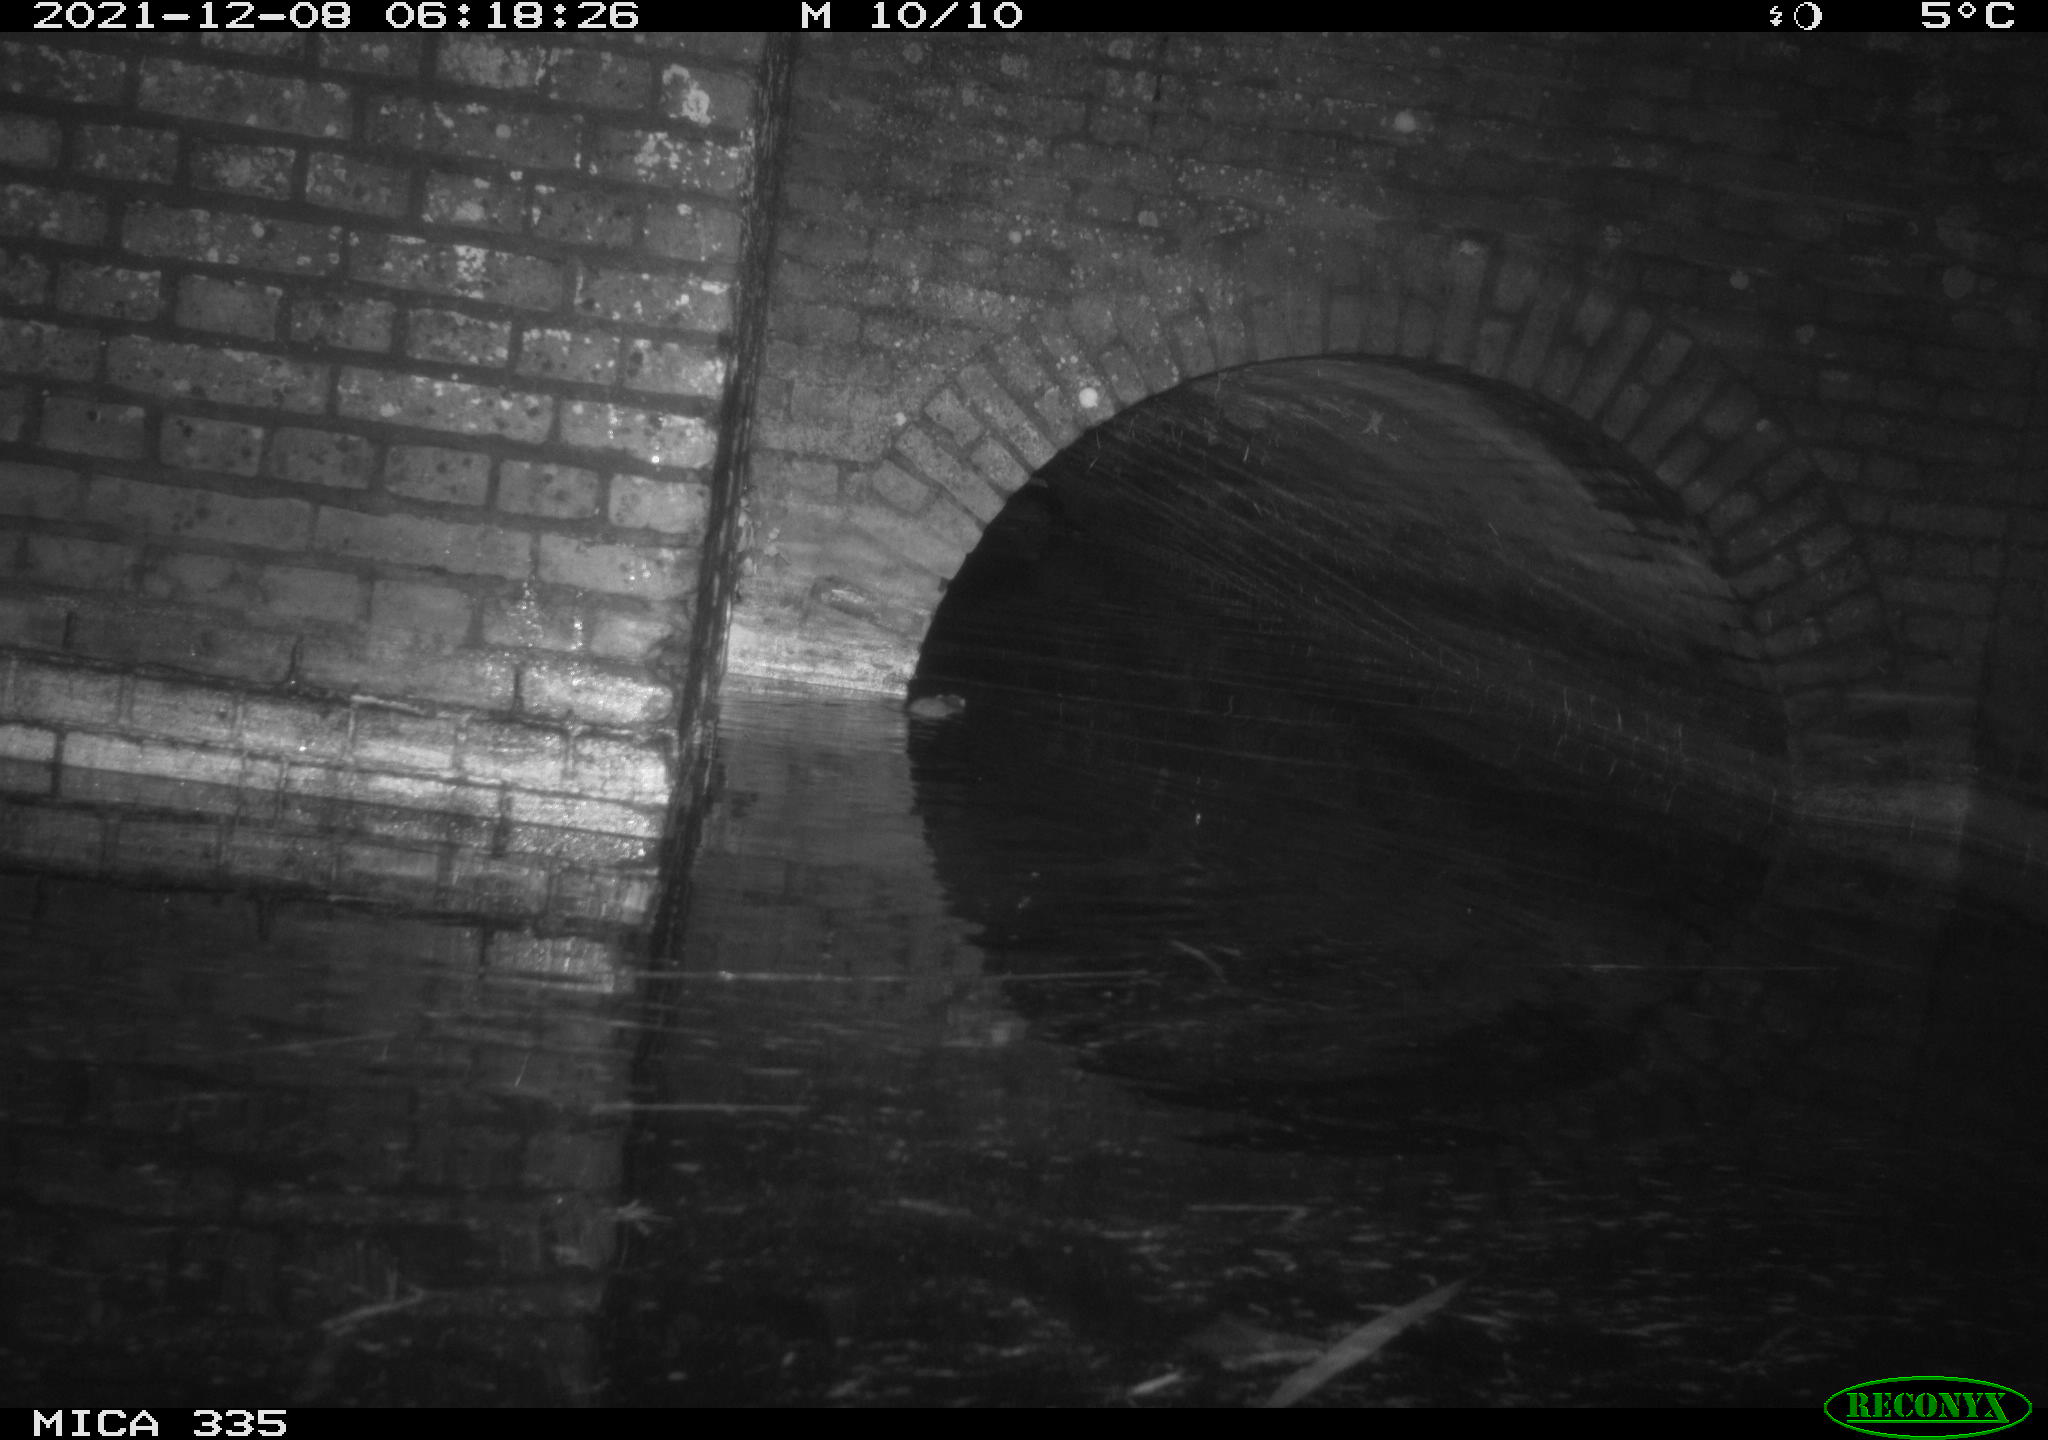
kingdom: Animalia
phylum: Chordata
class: Mammalia
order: Rodentia
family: Muridae
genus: Rattus
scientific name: Rattus norvegicus
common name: Brown rat
